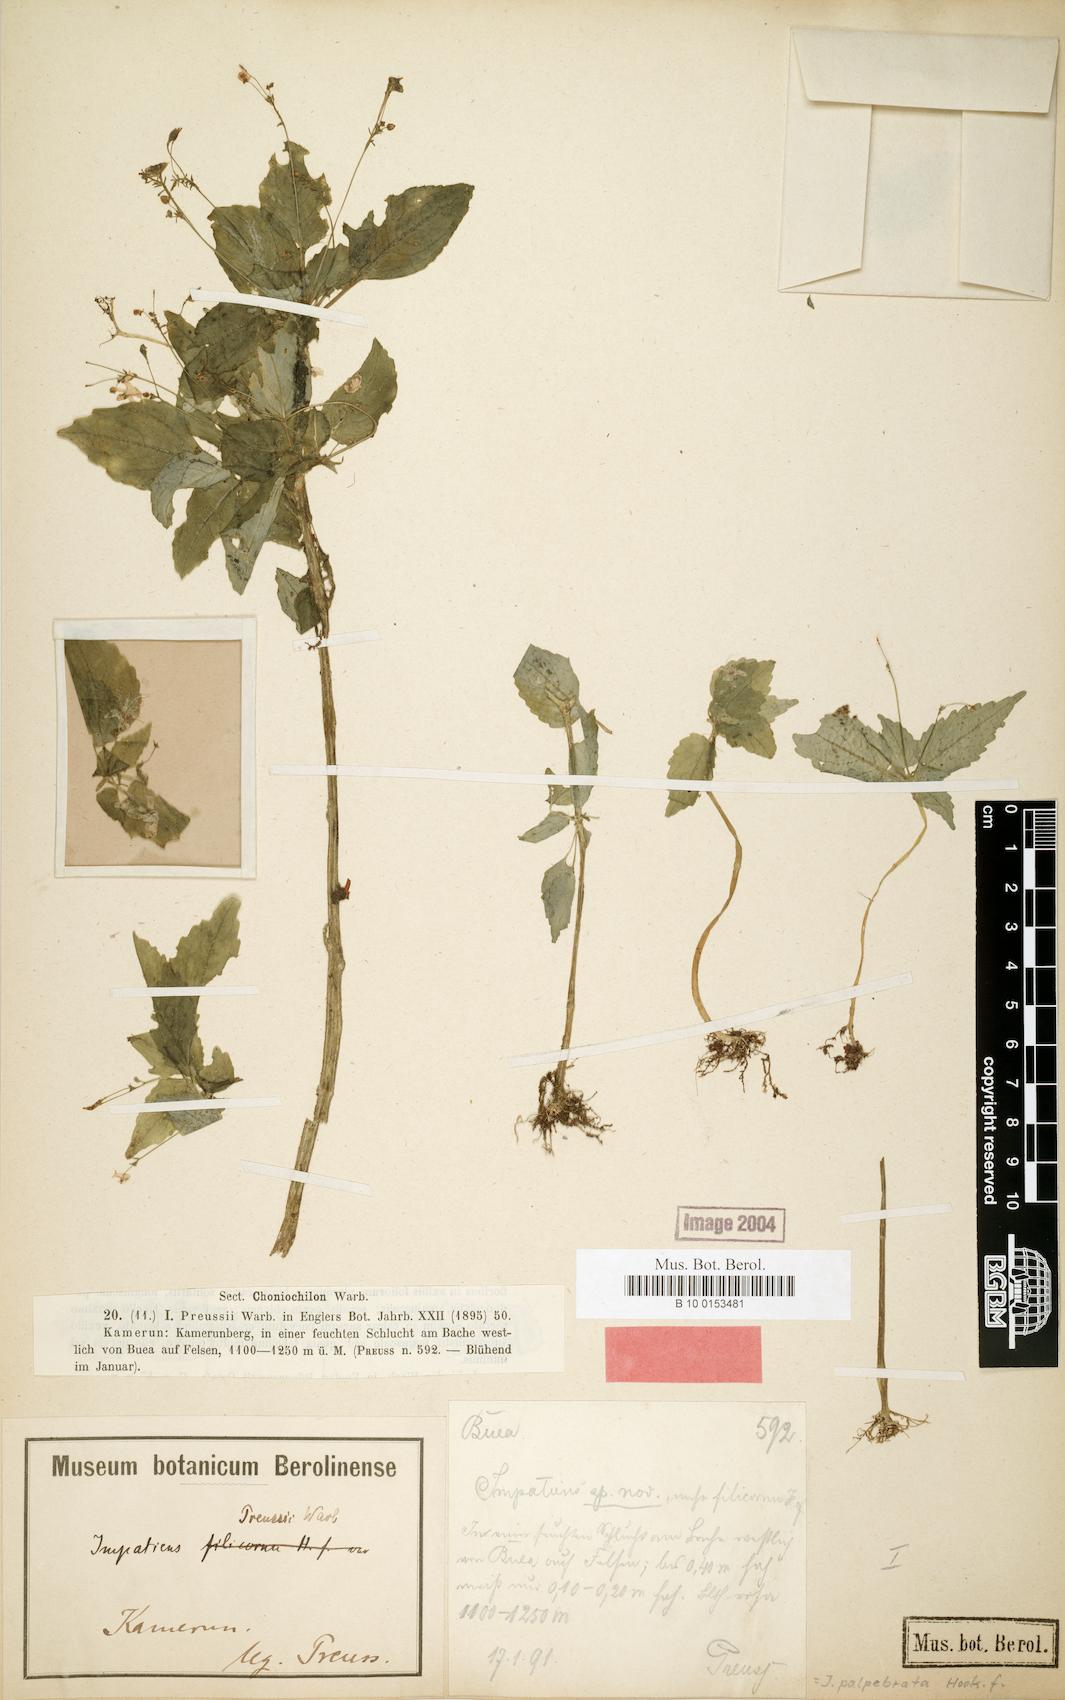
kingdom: Plantae
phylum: Tracheophyta
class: Magnoliopsida
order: Ericales
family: Balsaminaceae
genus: Impatiens
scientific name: Impatiens palpebrata
